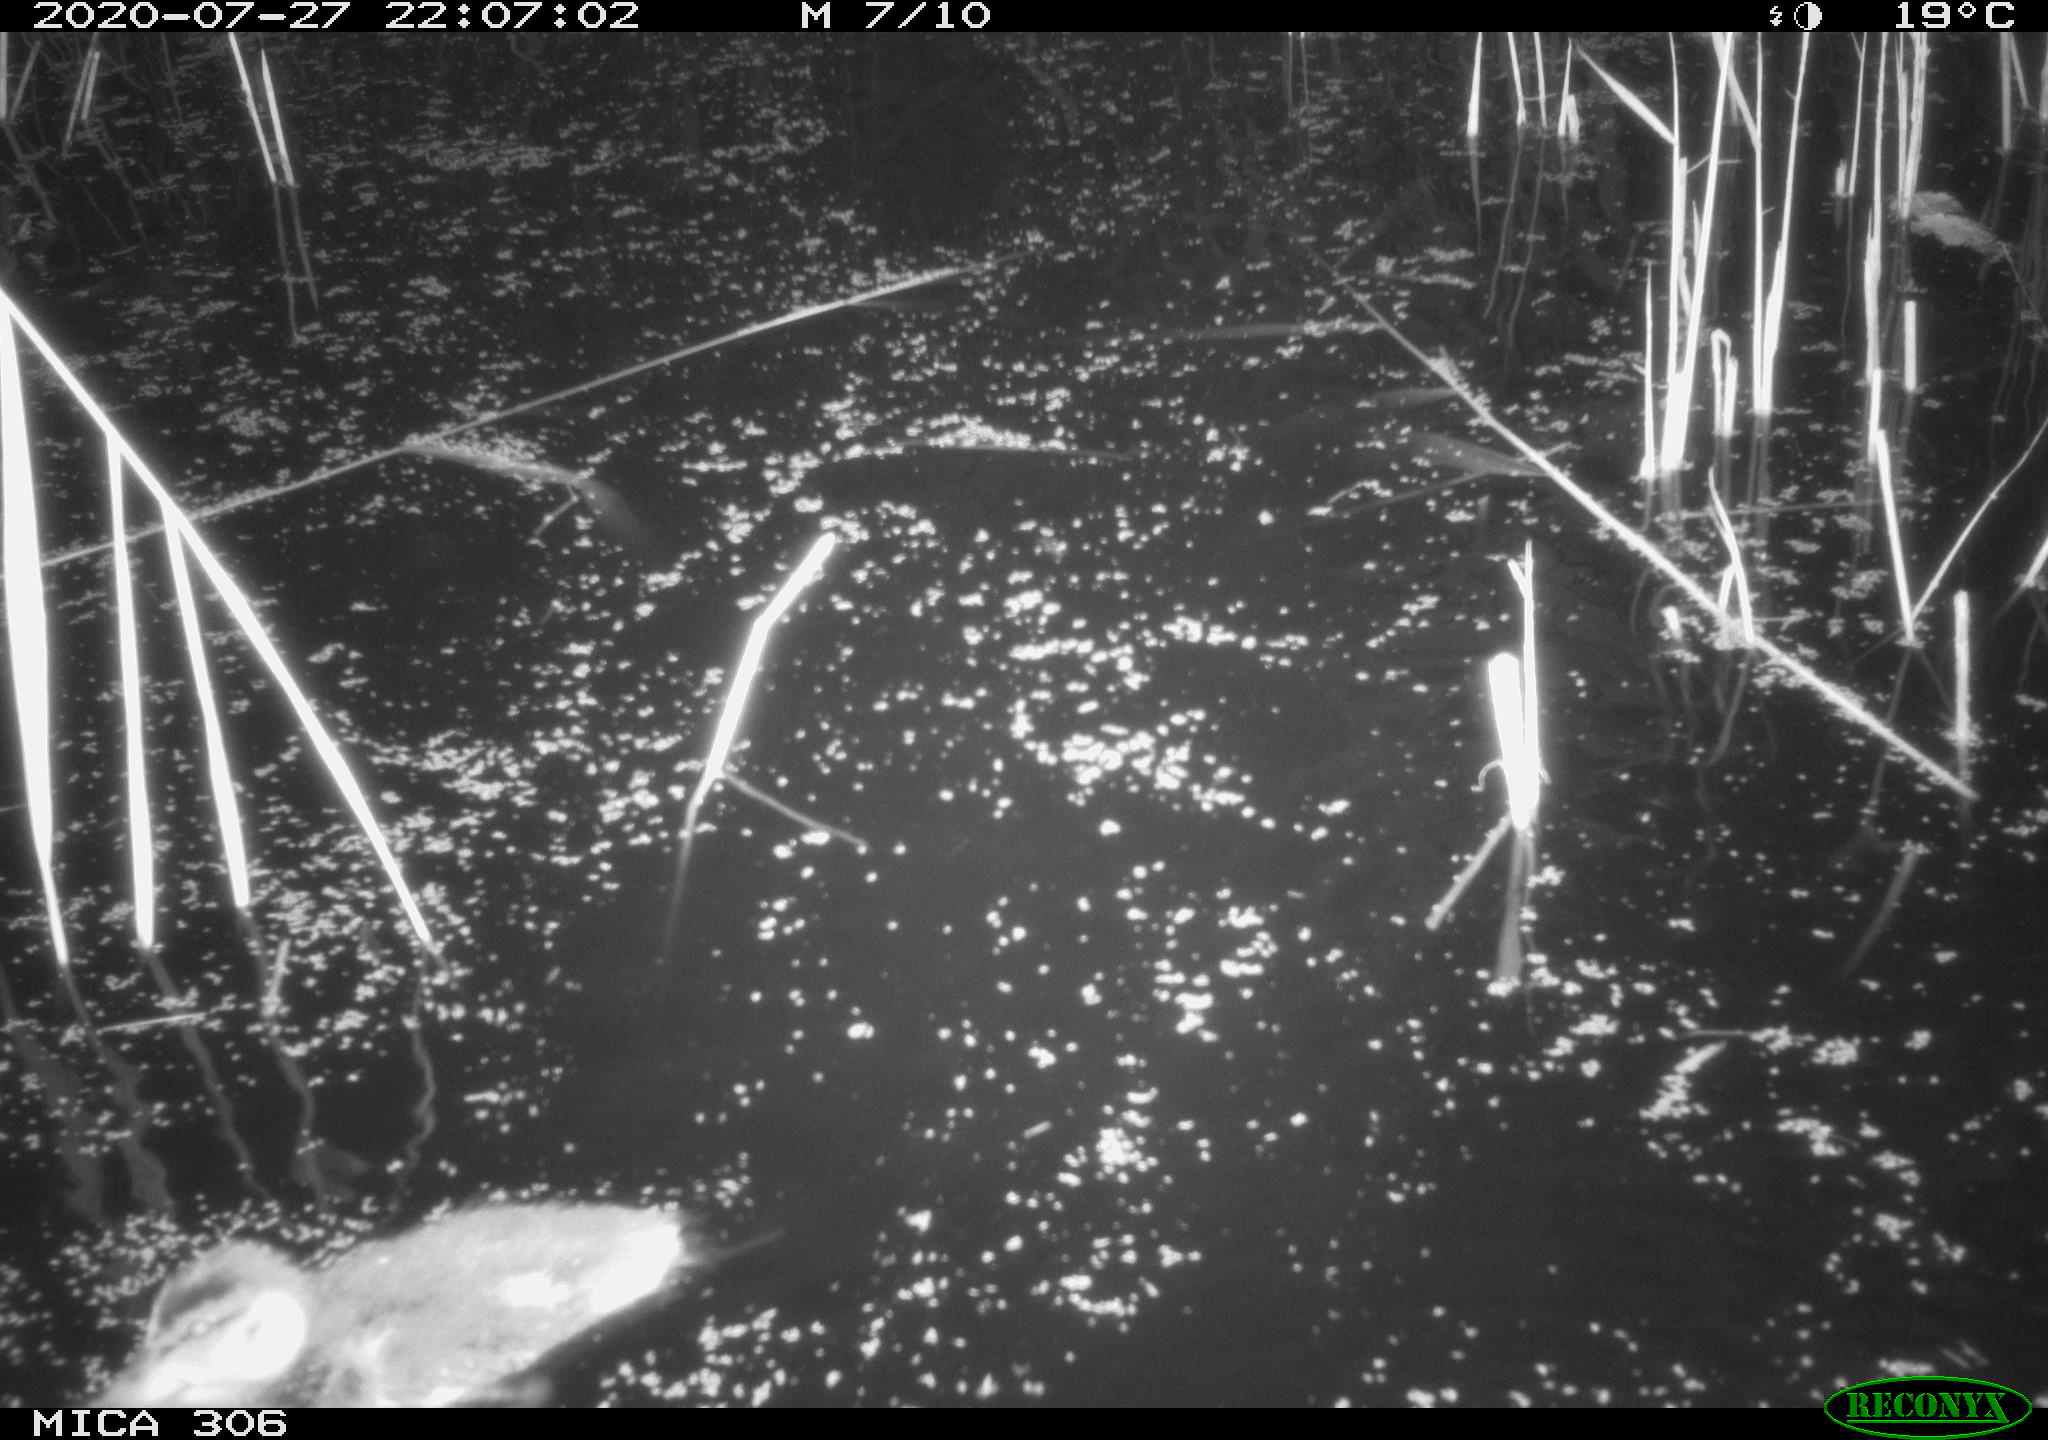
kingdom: Animalia
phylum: Chordata
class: Aves
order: Anseriformes
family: Anatidae
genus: Anas
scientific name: Anas platyrhynchos
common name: Mallard
